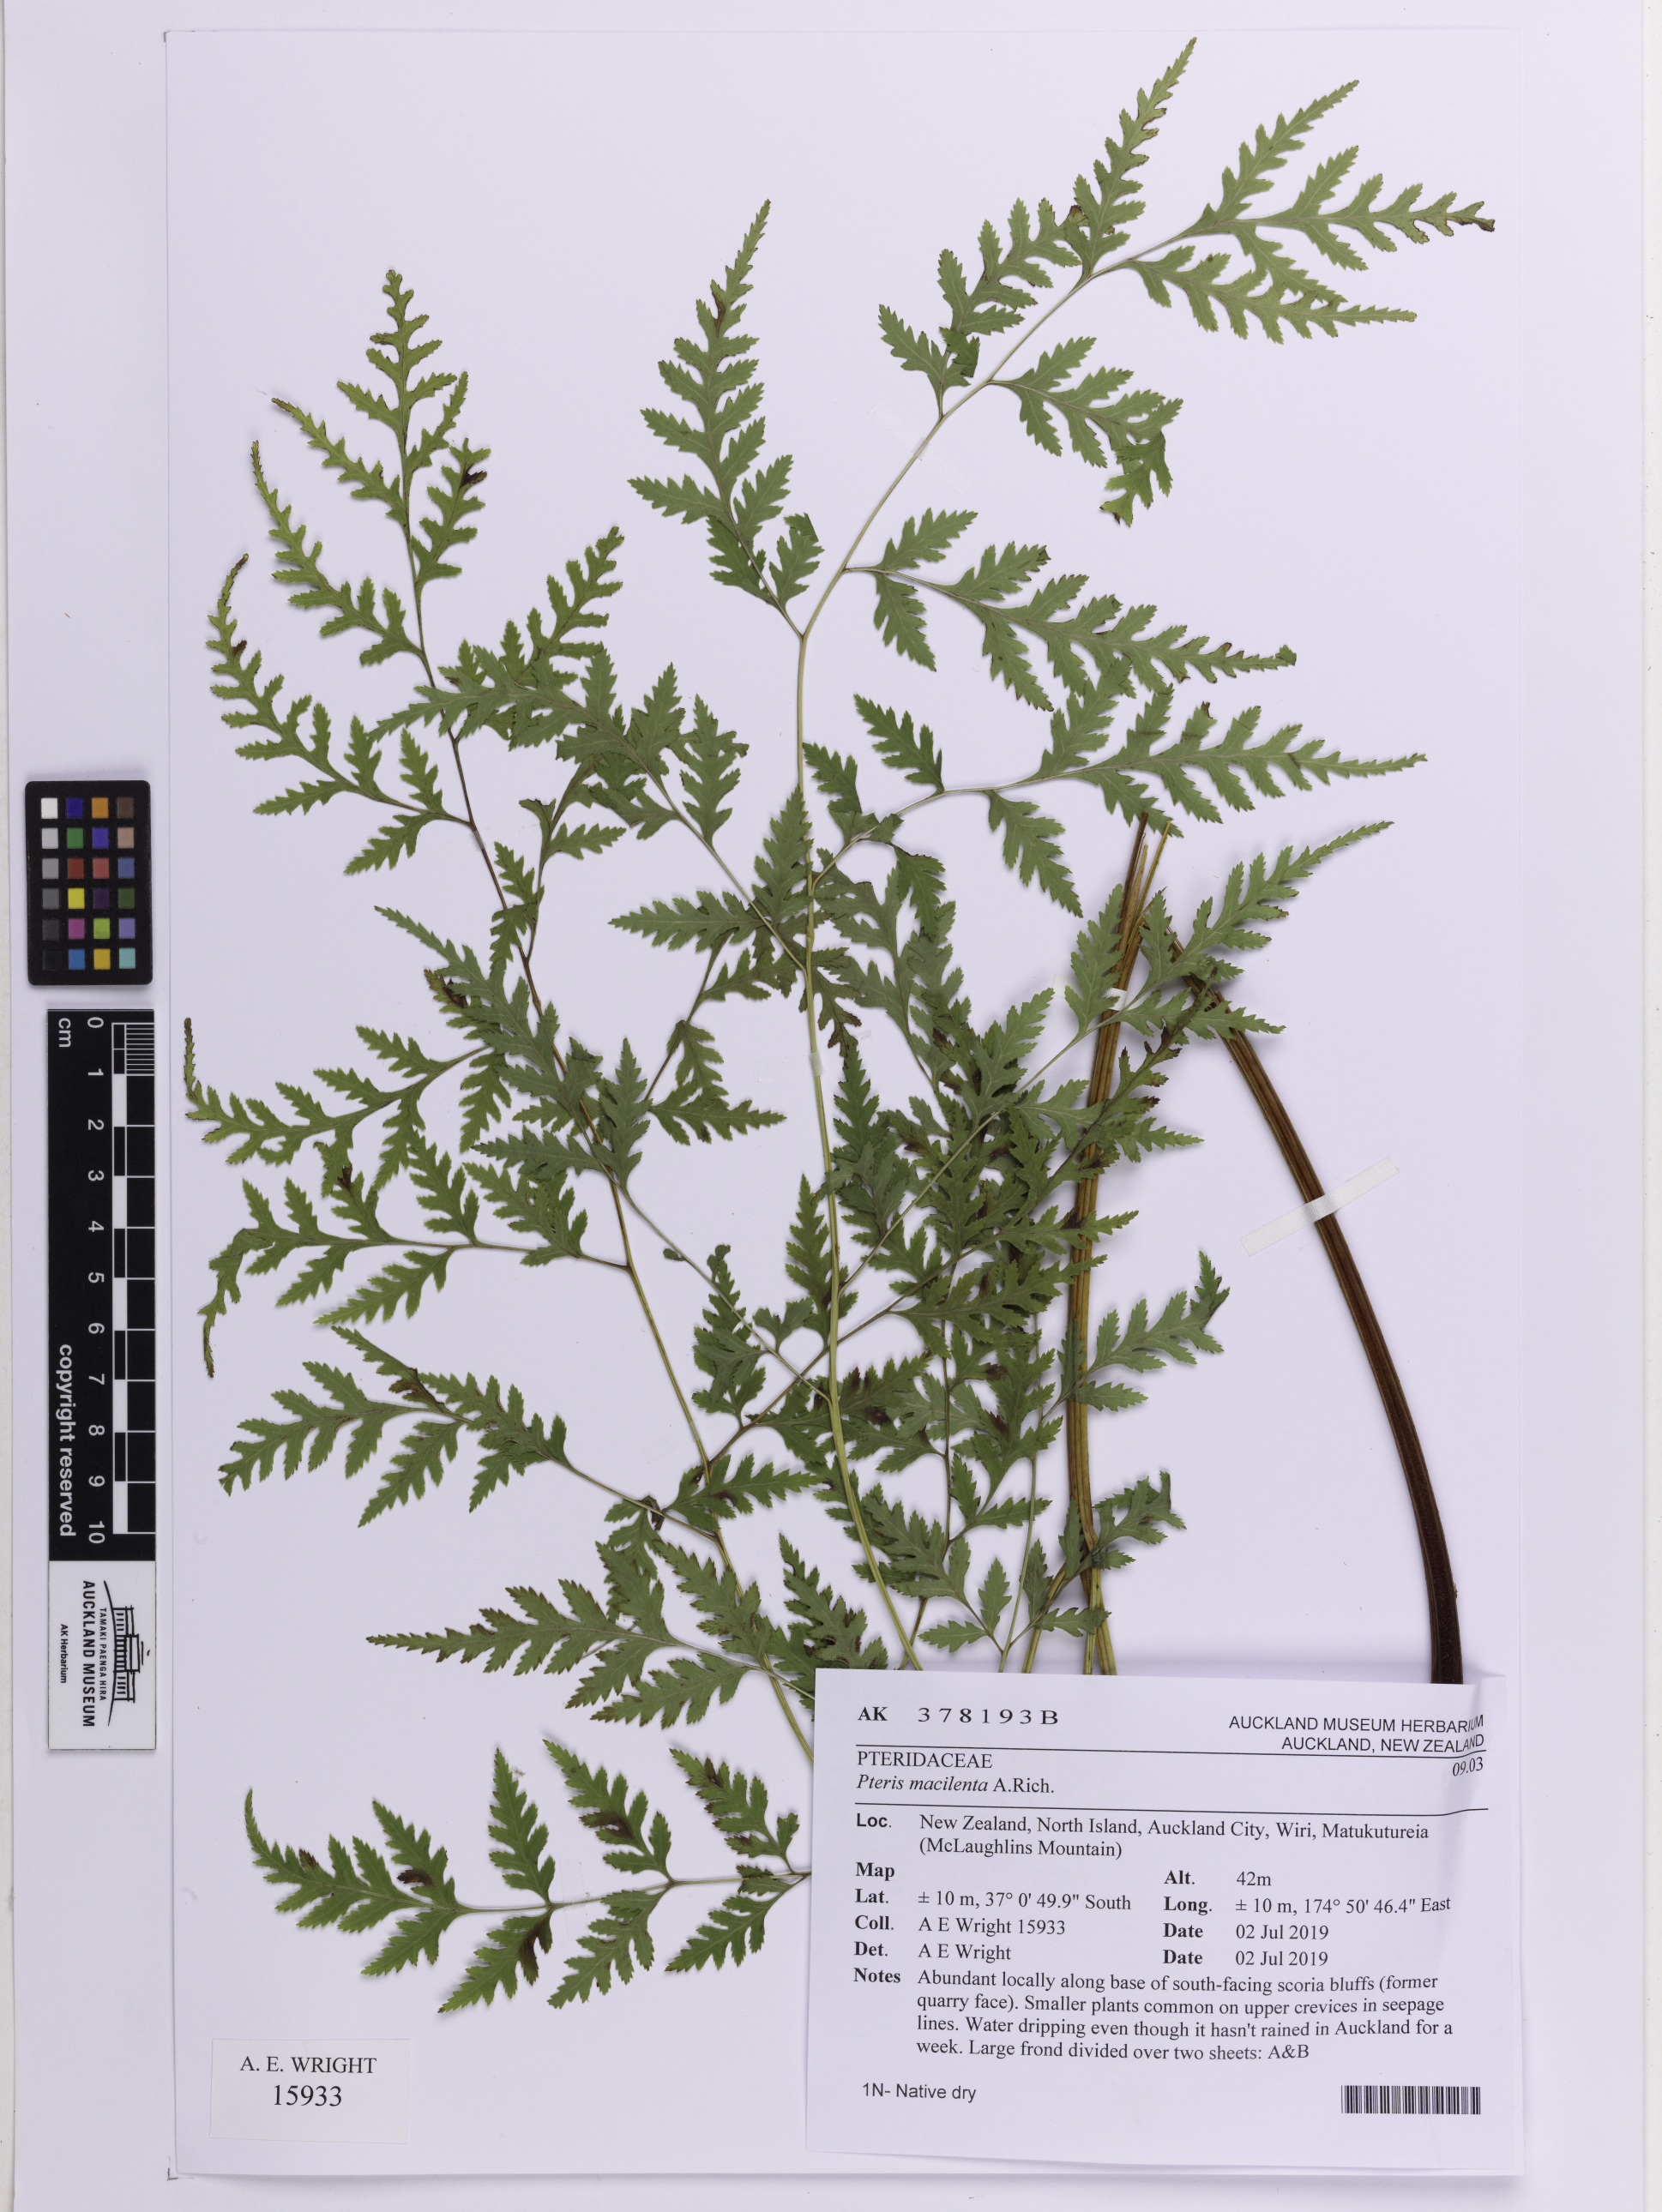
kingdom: Plantae
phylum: Tracheophyta
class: Polypodiopsida
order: Polypodiales
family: Pteridaceae
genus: Pteris
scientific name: Pteris macilenta
